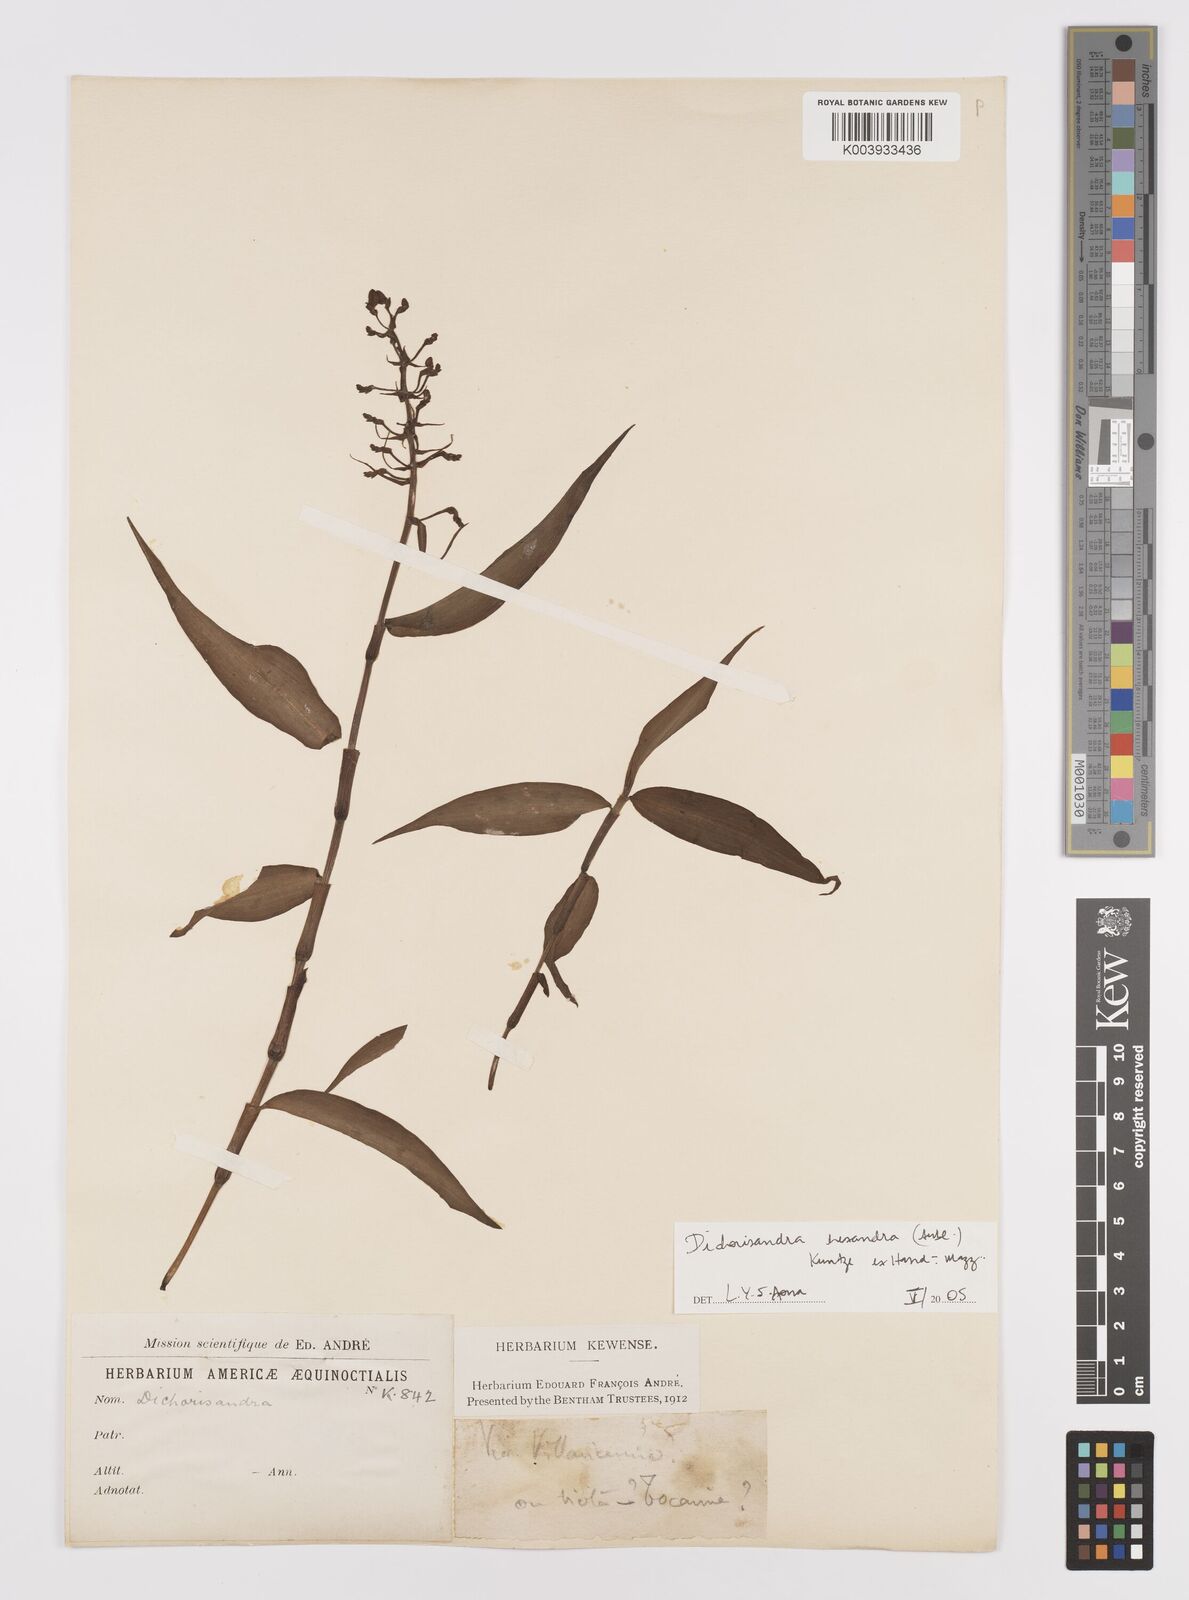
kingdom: Plantae
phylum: Tracheophyta
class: Liliopsida
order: Commelinales
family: Commelinaceae
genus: Dichorisandra
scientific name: Dichorisandra hexandra
